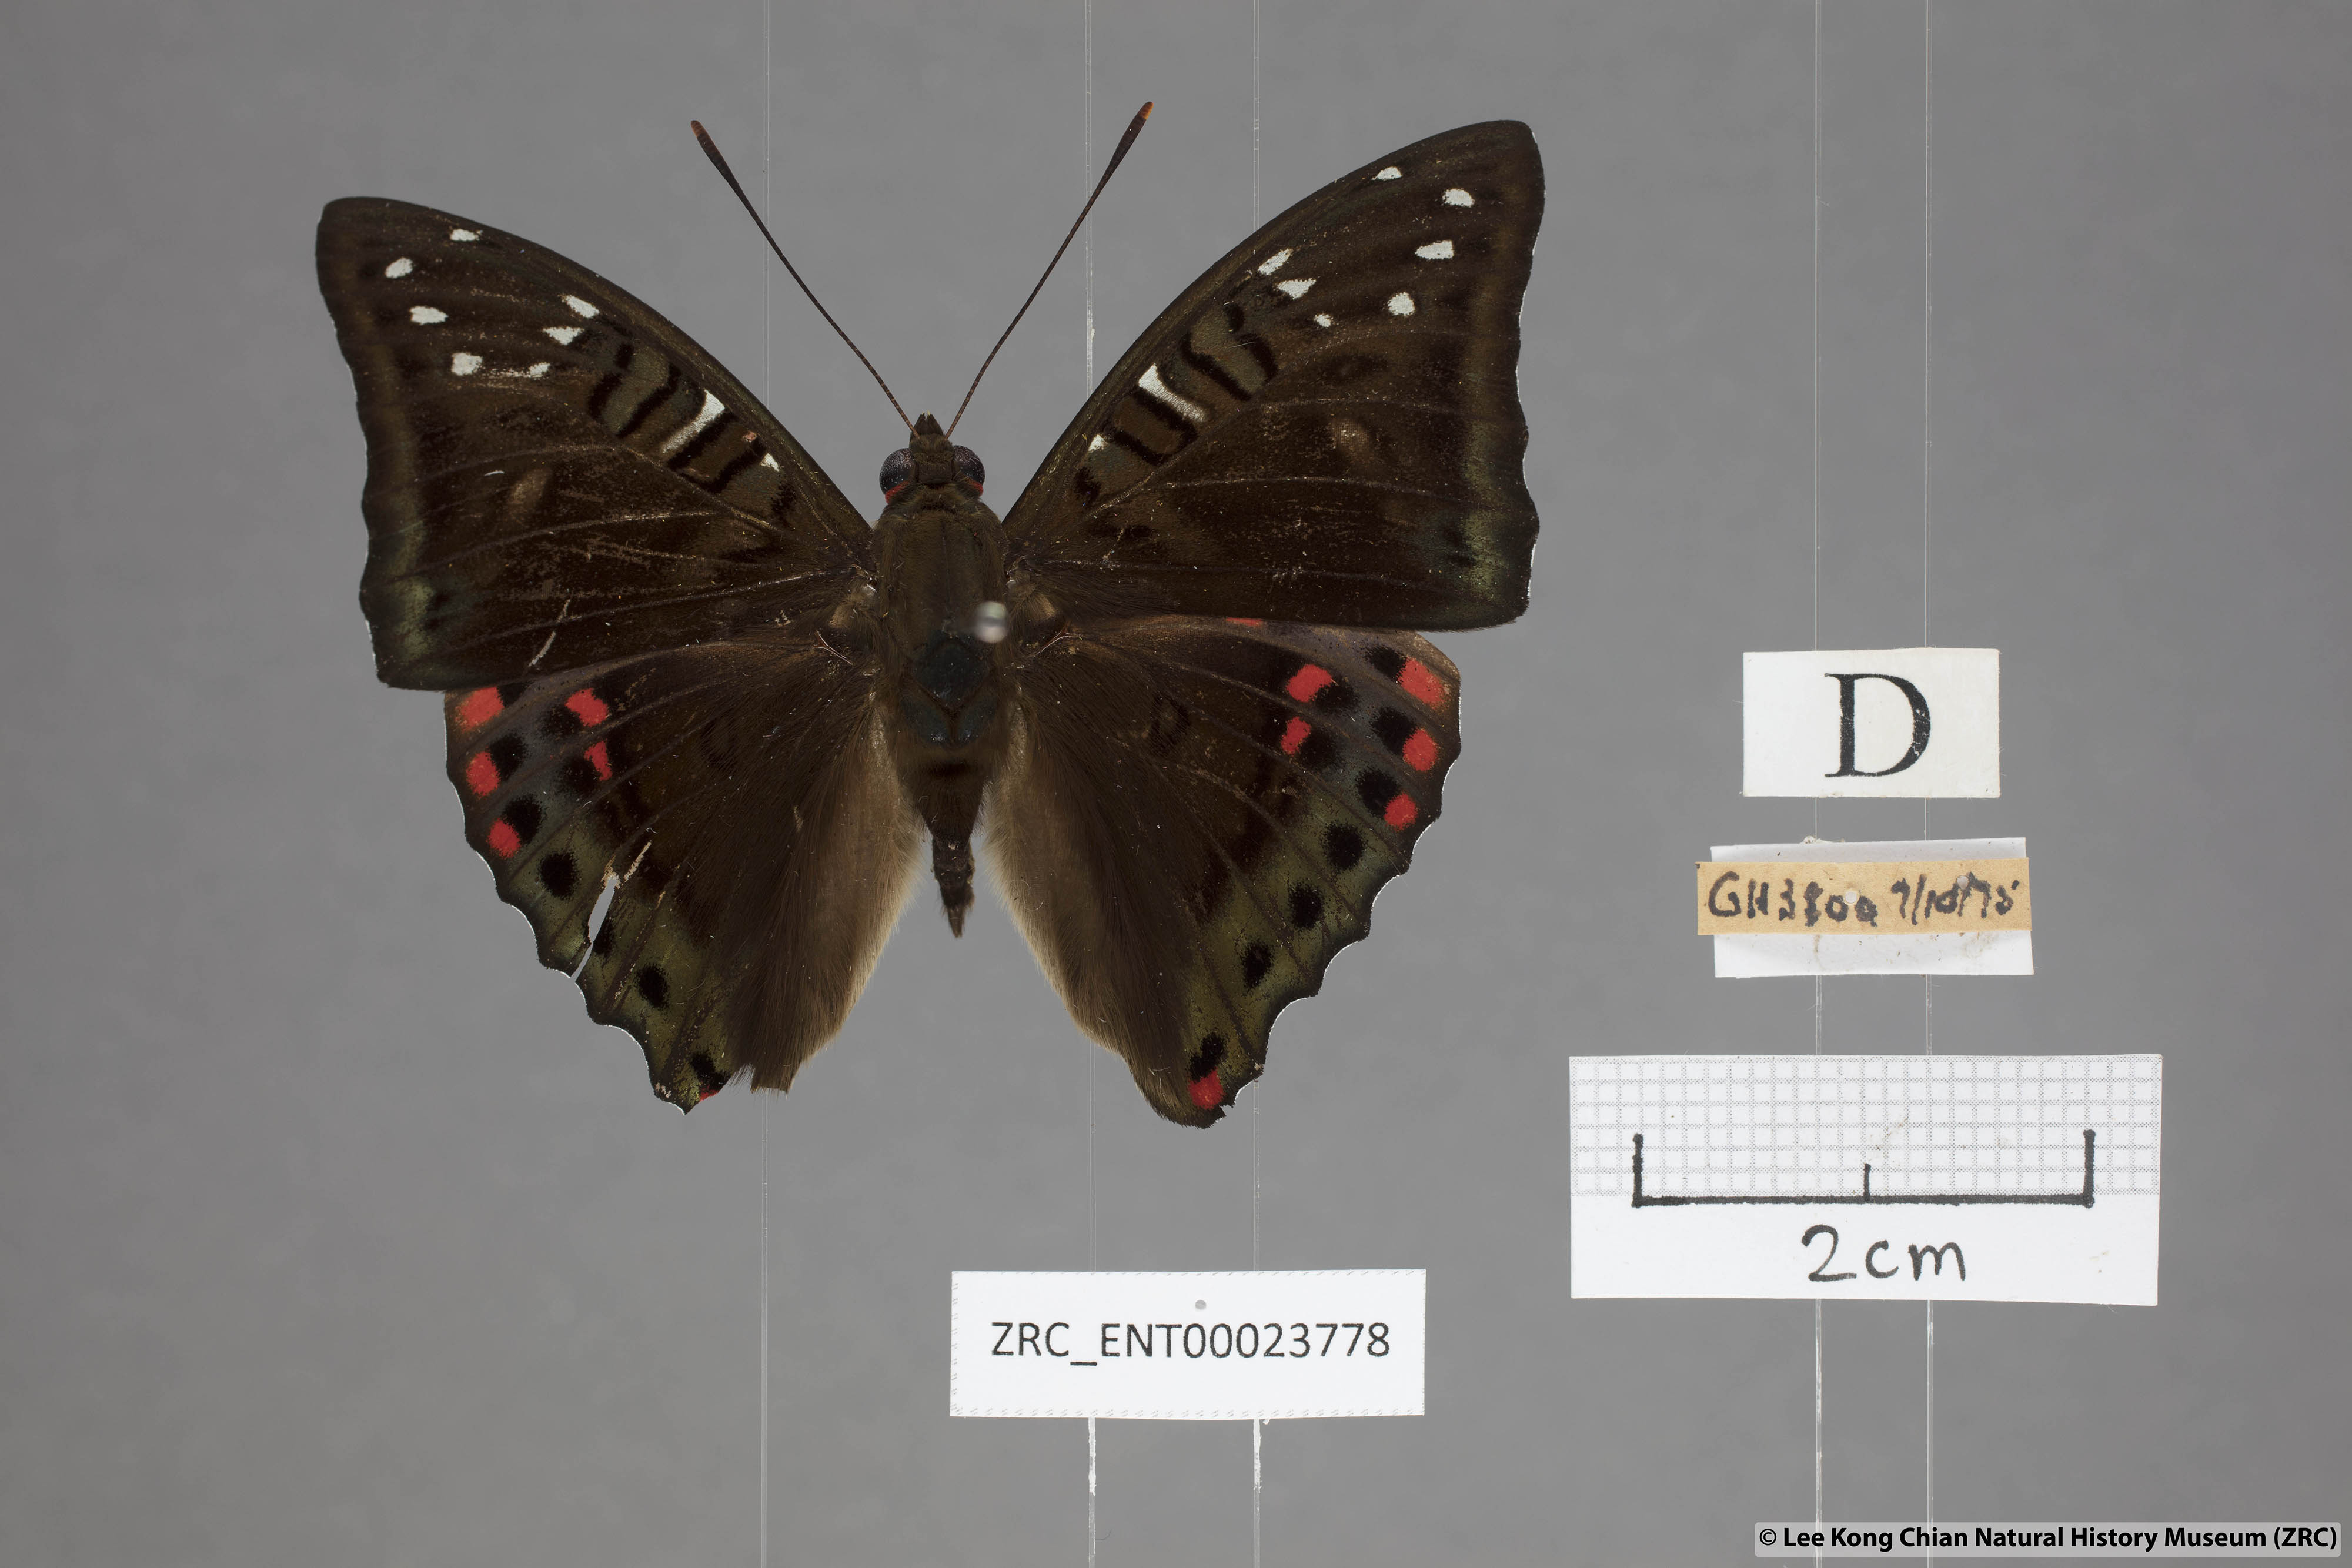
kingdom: Animalia
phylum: Arthropoda
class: Insecta
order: Lepidoptera
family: Nymphalidae
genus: Euthalia
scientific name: Euthalia whiteheadi
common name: Tri-coloured baron
